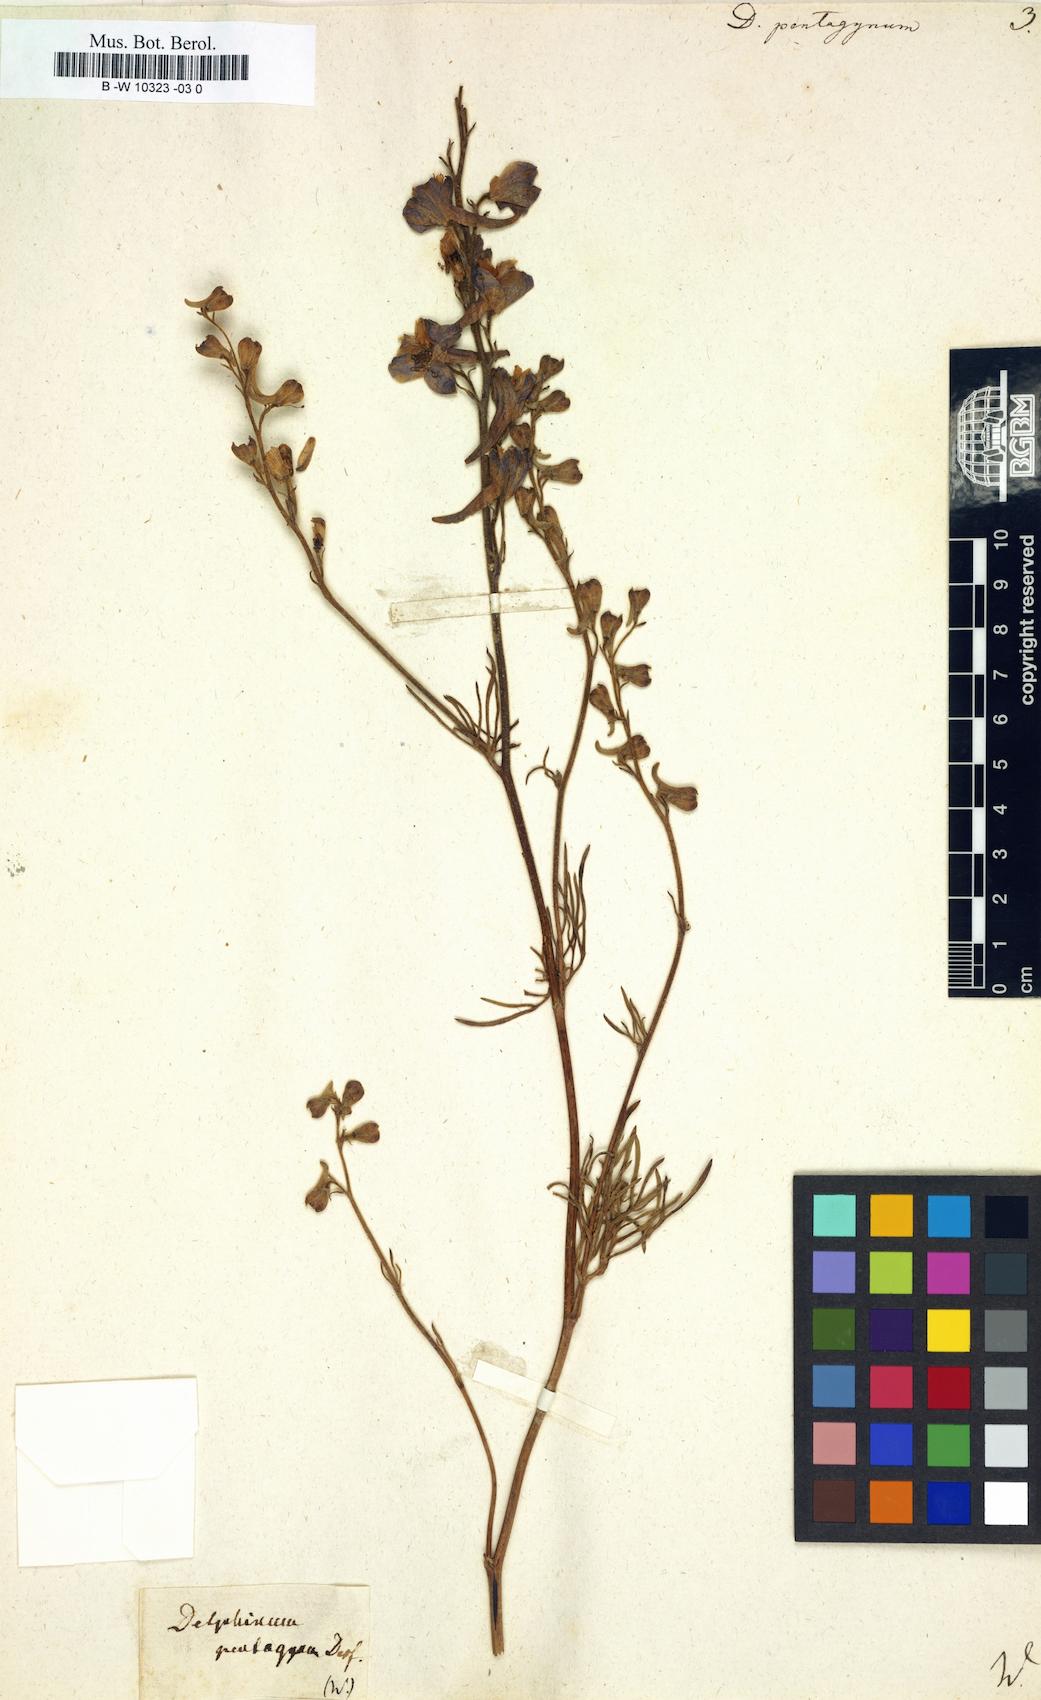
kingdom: Plantae
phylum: Tracheophyta
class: Magnoliopsida
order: Ranunculales
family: Ranunculaceae
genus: Delphinium
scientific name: Delphinium pentagynum
